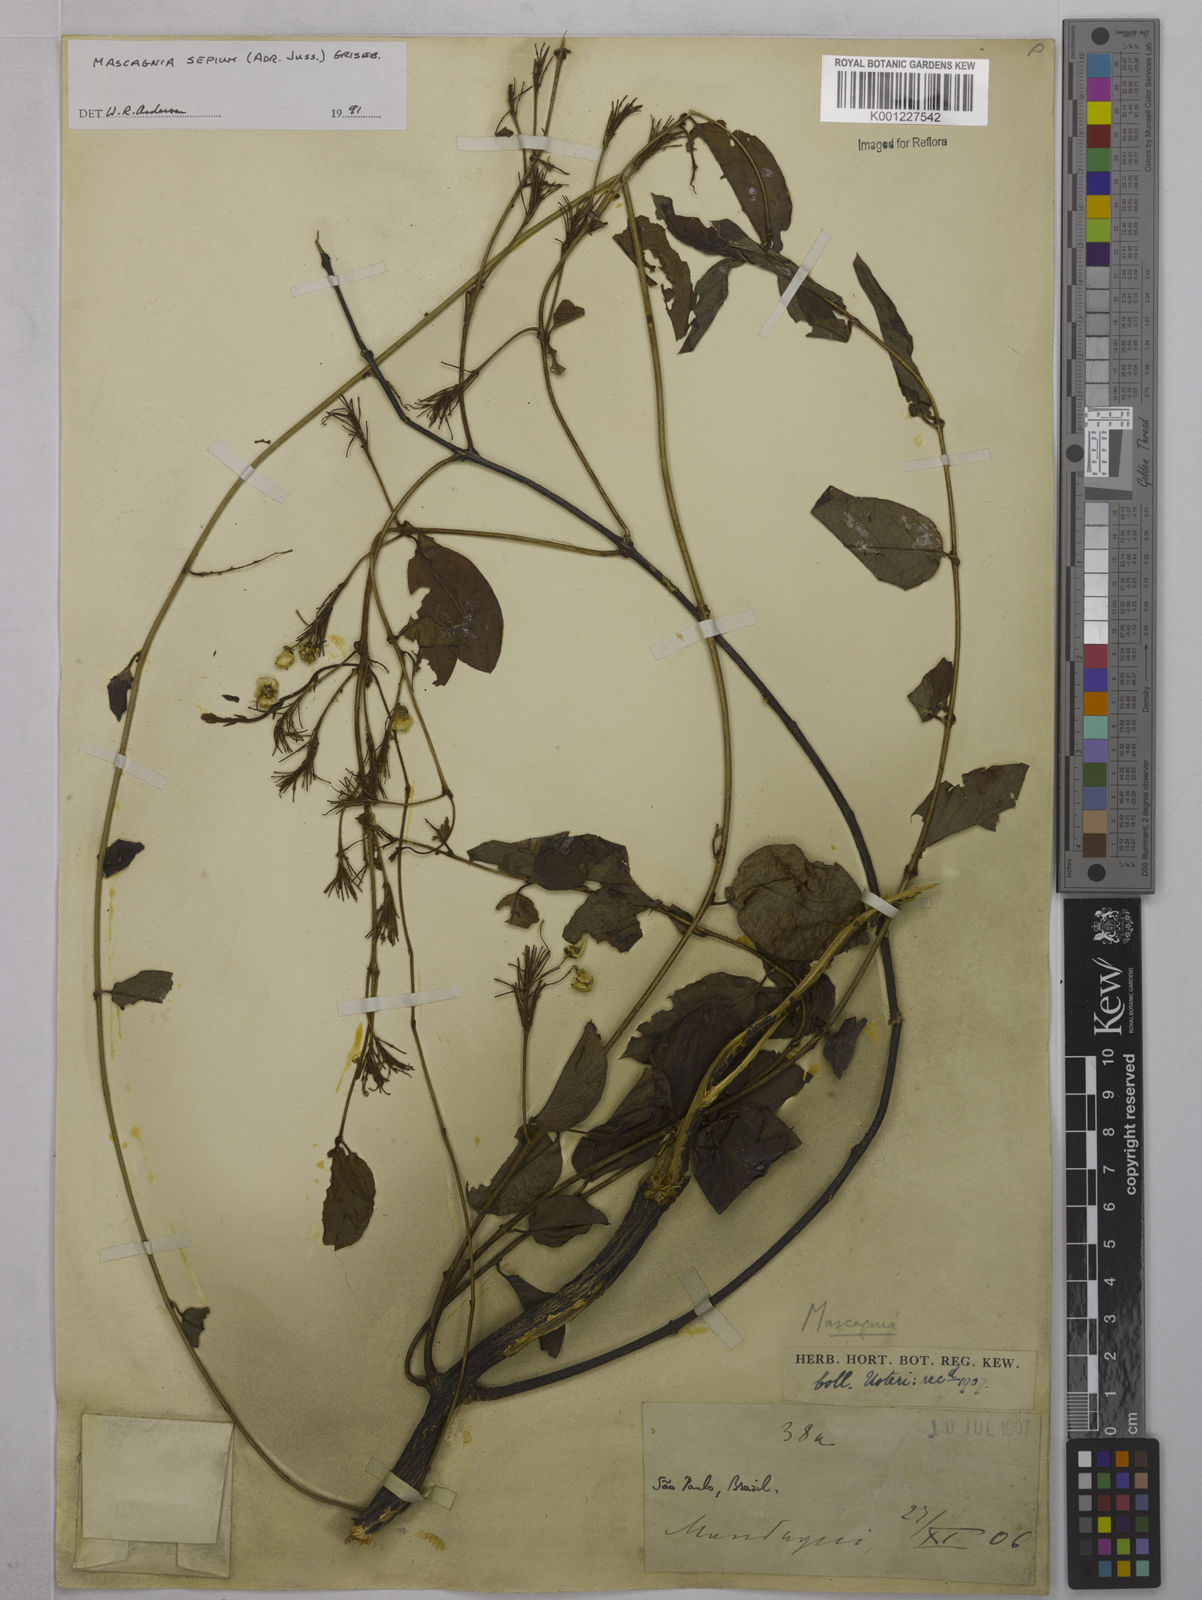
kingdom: Plantae
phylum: Tracheophyta
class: Magnoliopsida
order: Malpighiales
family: Malpighiaceae
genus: Mascagnia
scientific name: Mascagnia sepium
